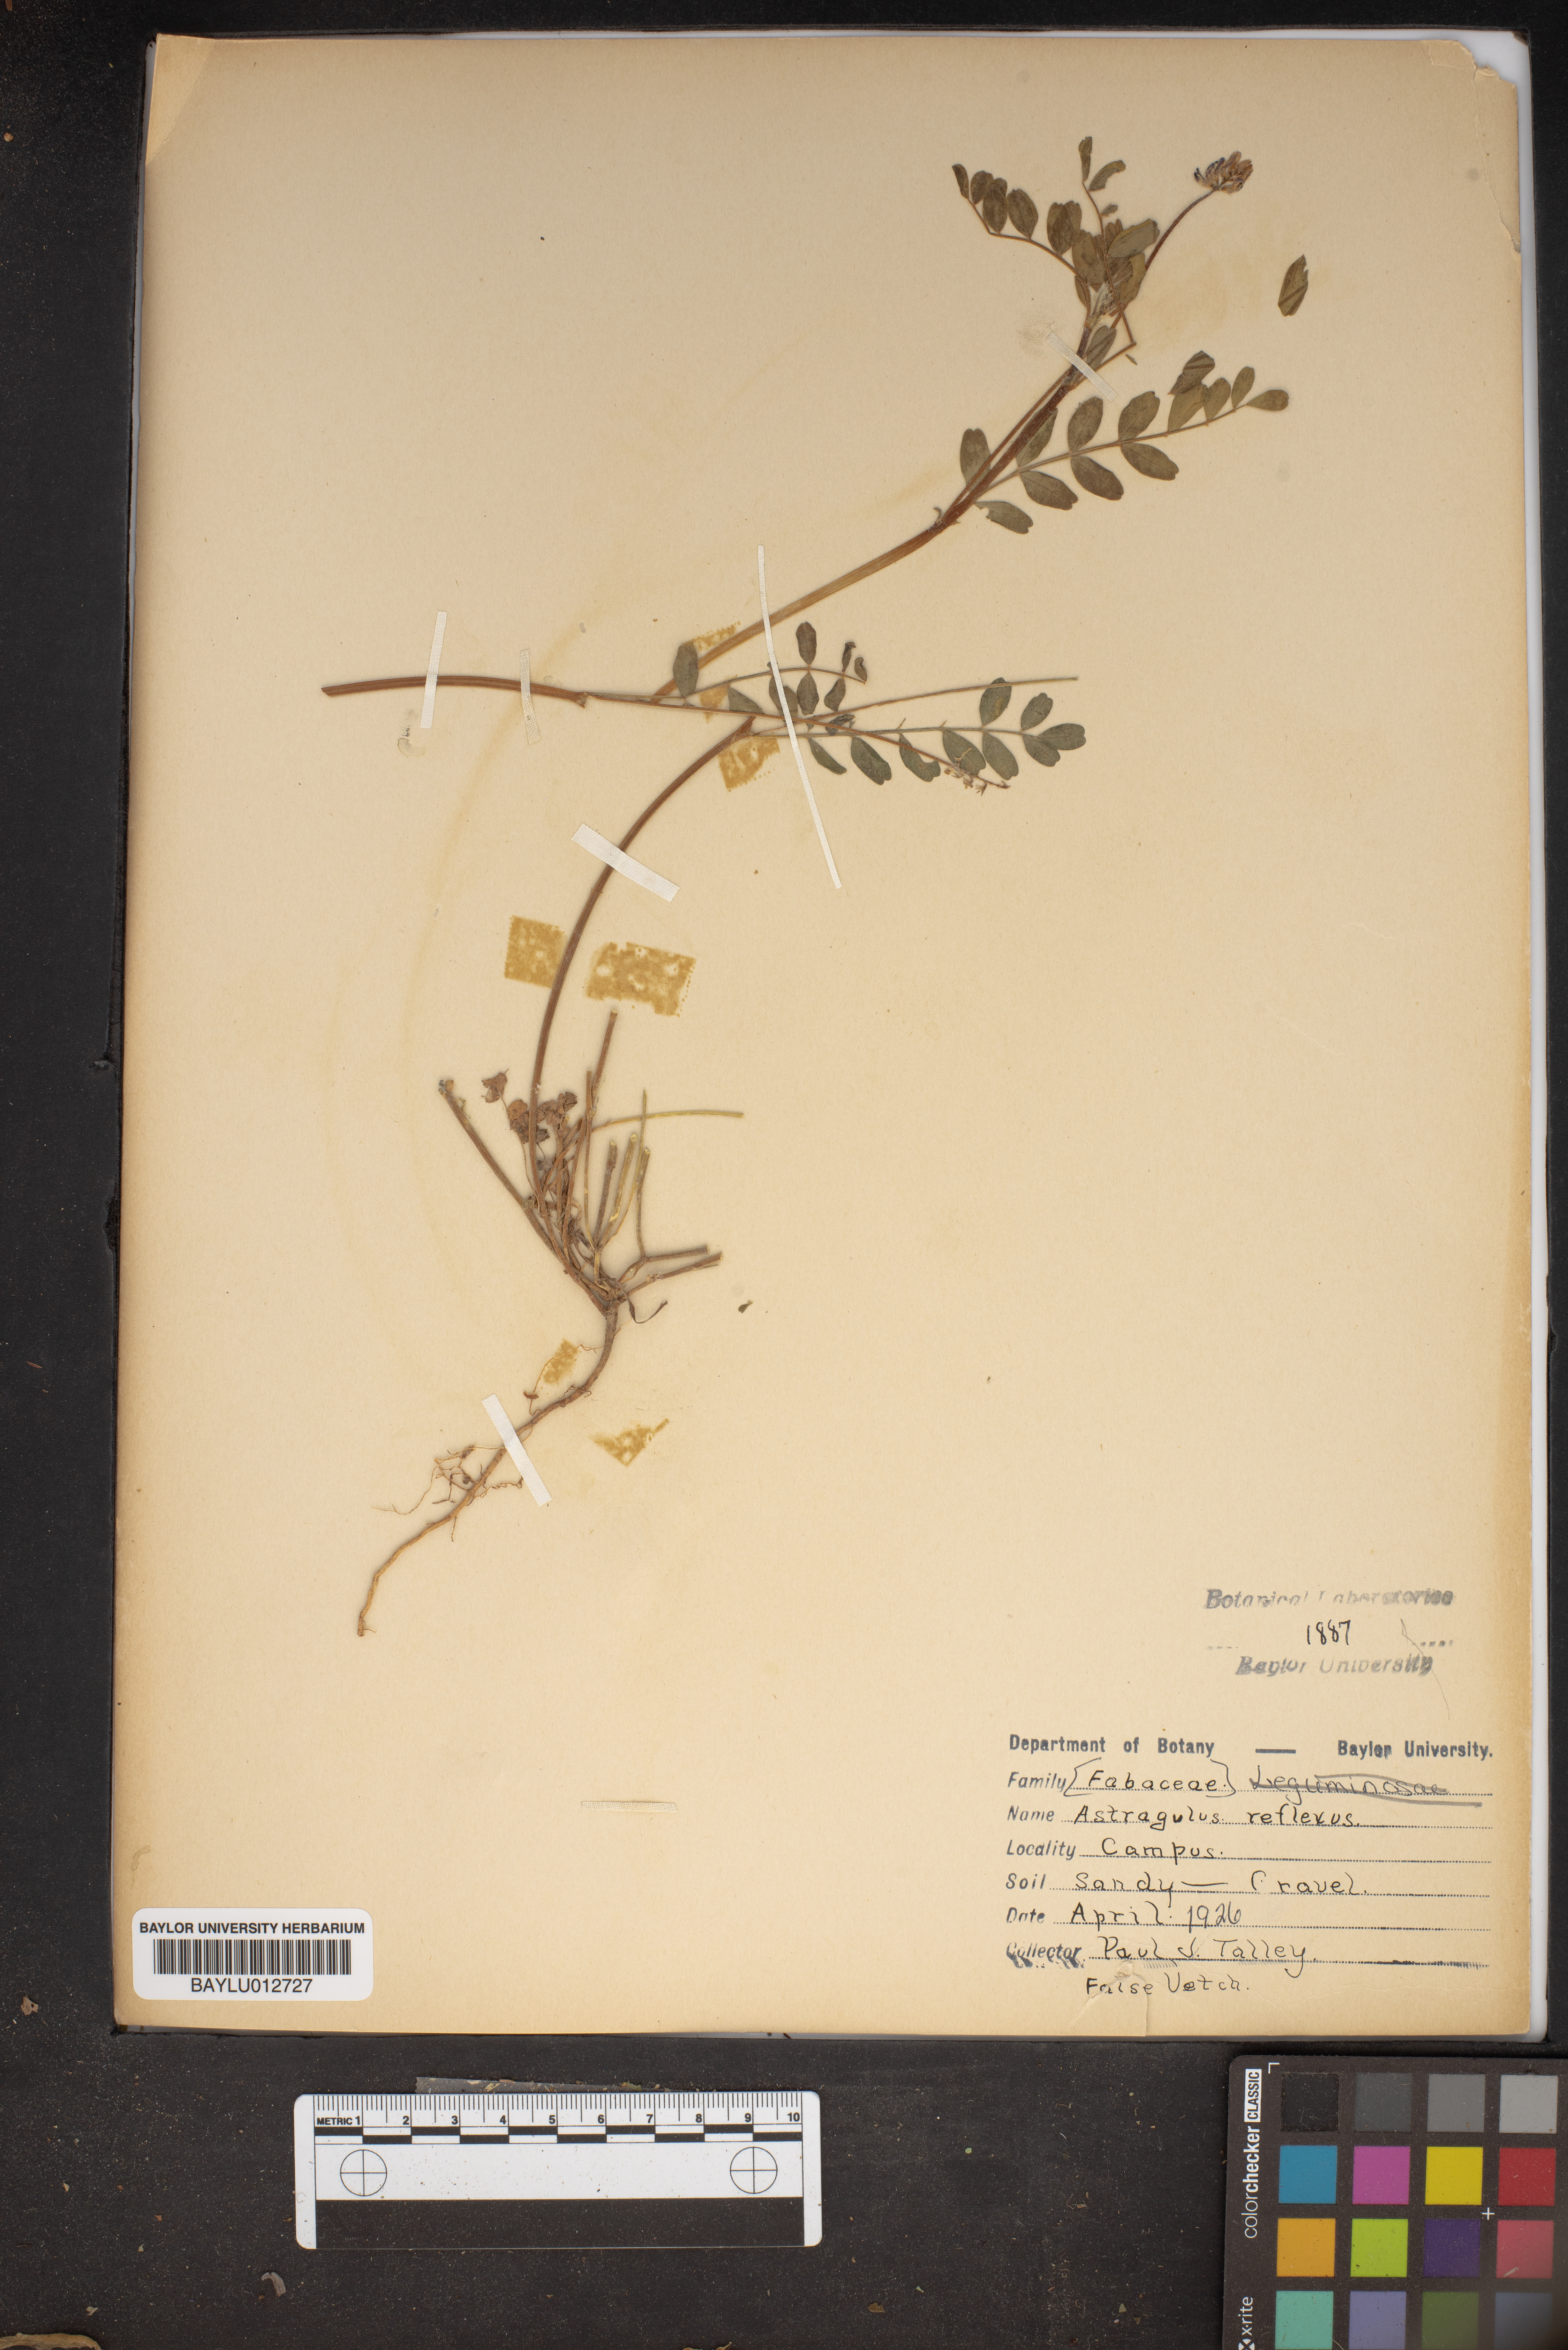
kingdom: Plantae
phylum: Tracheophyta
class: Magnoliopsida
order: Fabales
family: Fabaceae
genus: Astragalus
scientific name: Astragalus reflexus
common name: Texas milk-vetch
